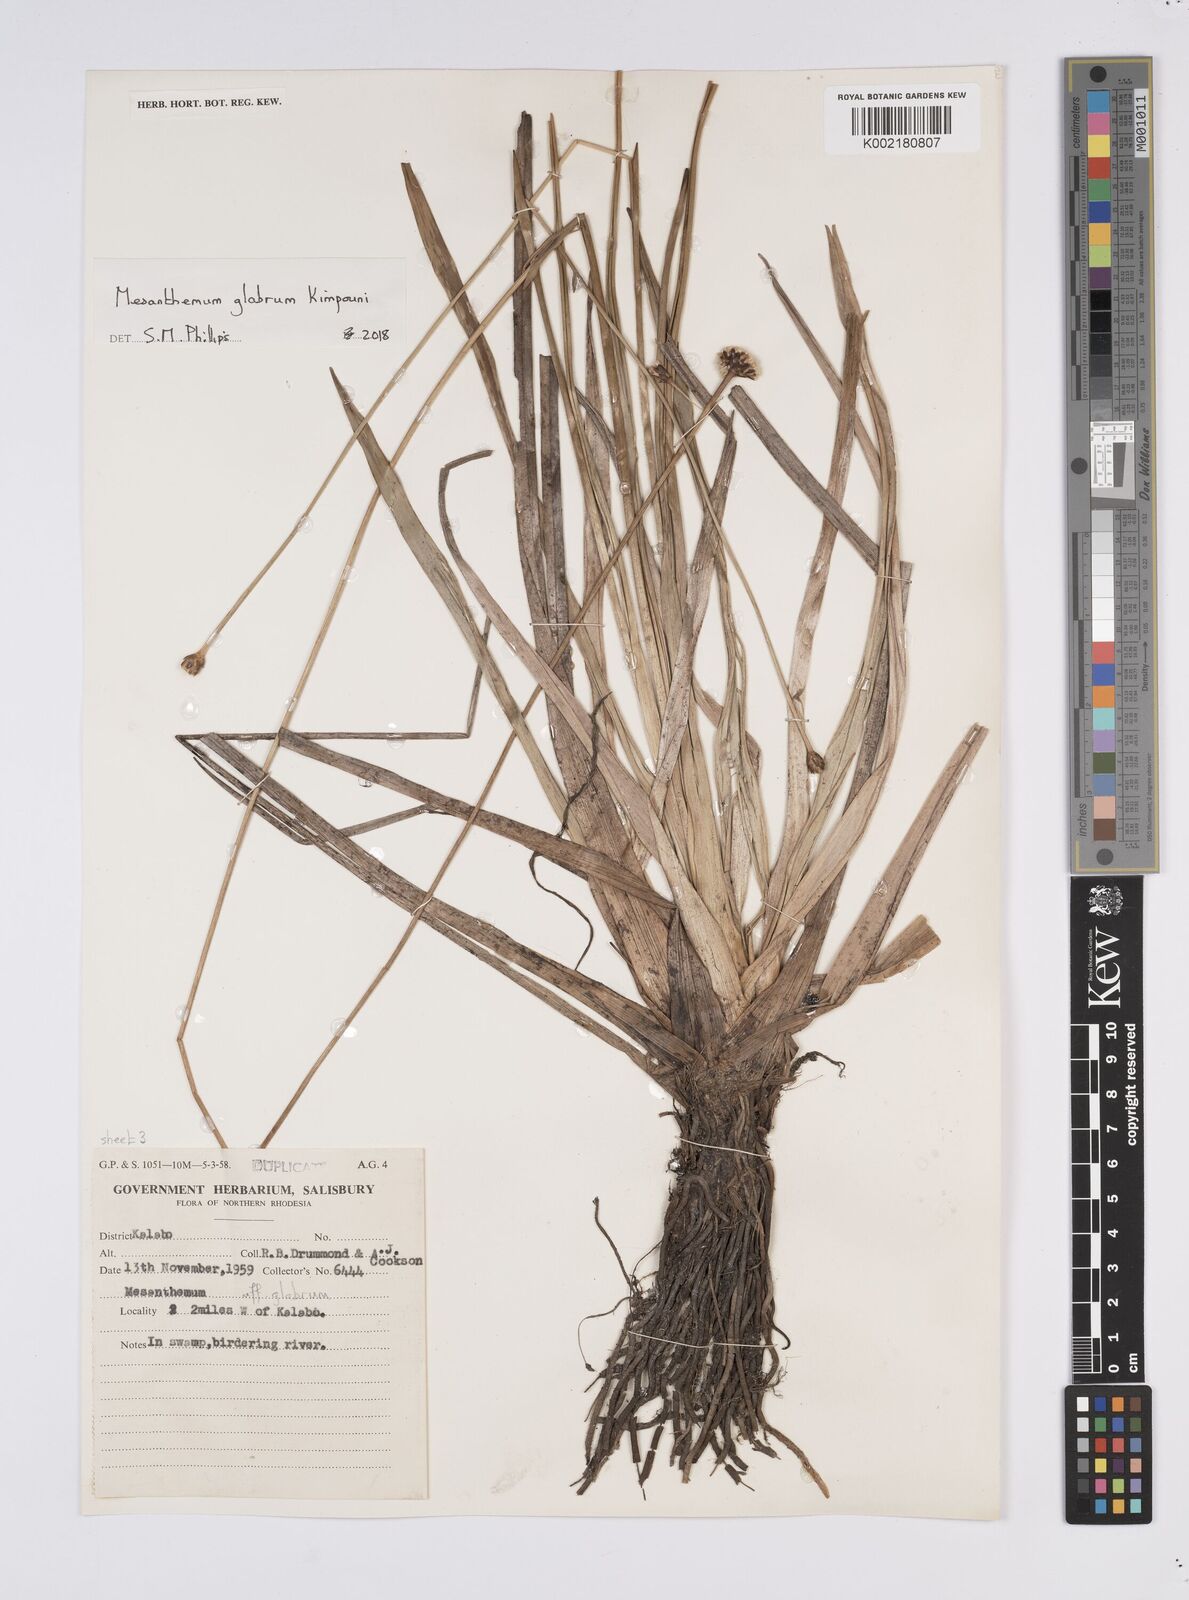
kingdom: Plantae
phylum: Tracheophyta
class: Liliopsida
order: Poales
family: Eriocaulaceae
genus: Mesanthemum
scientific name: Mesanthemum glabrum
